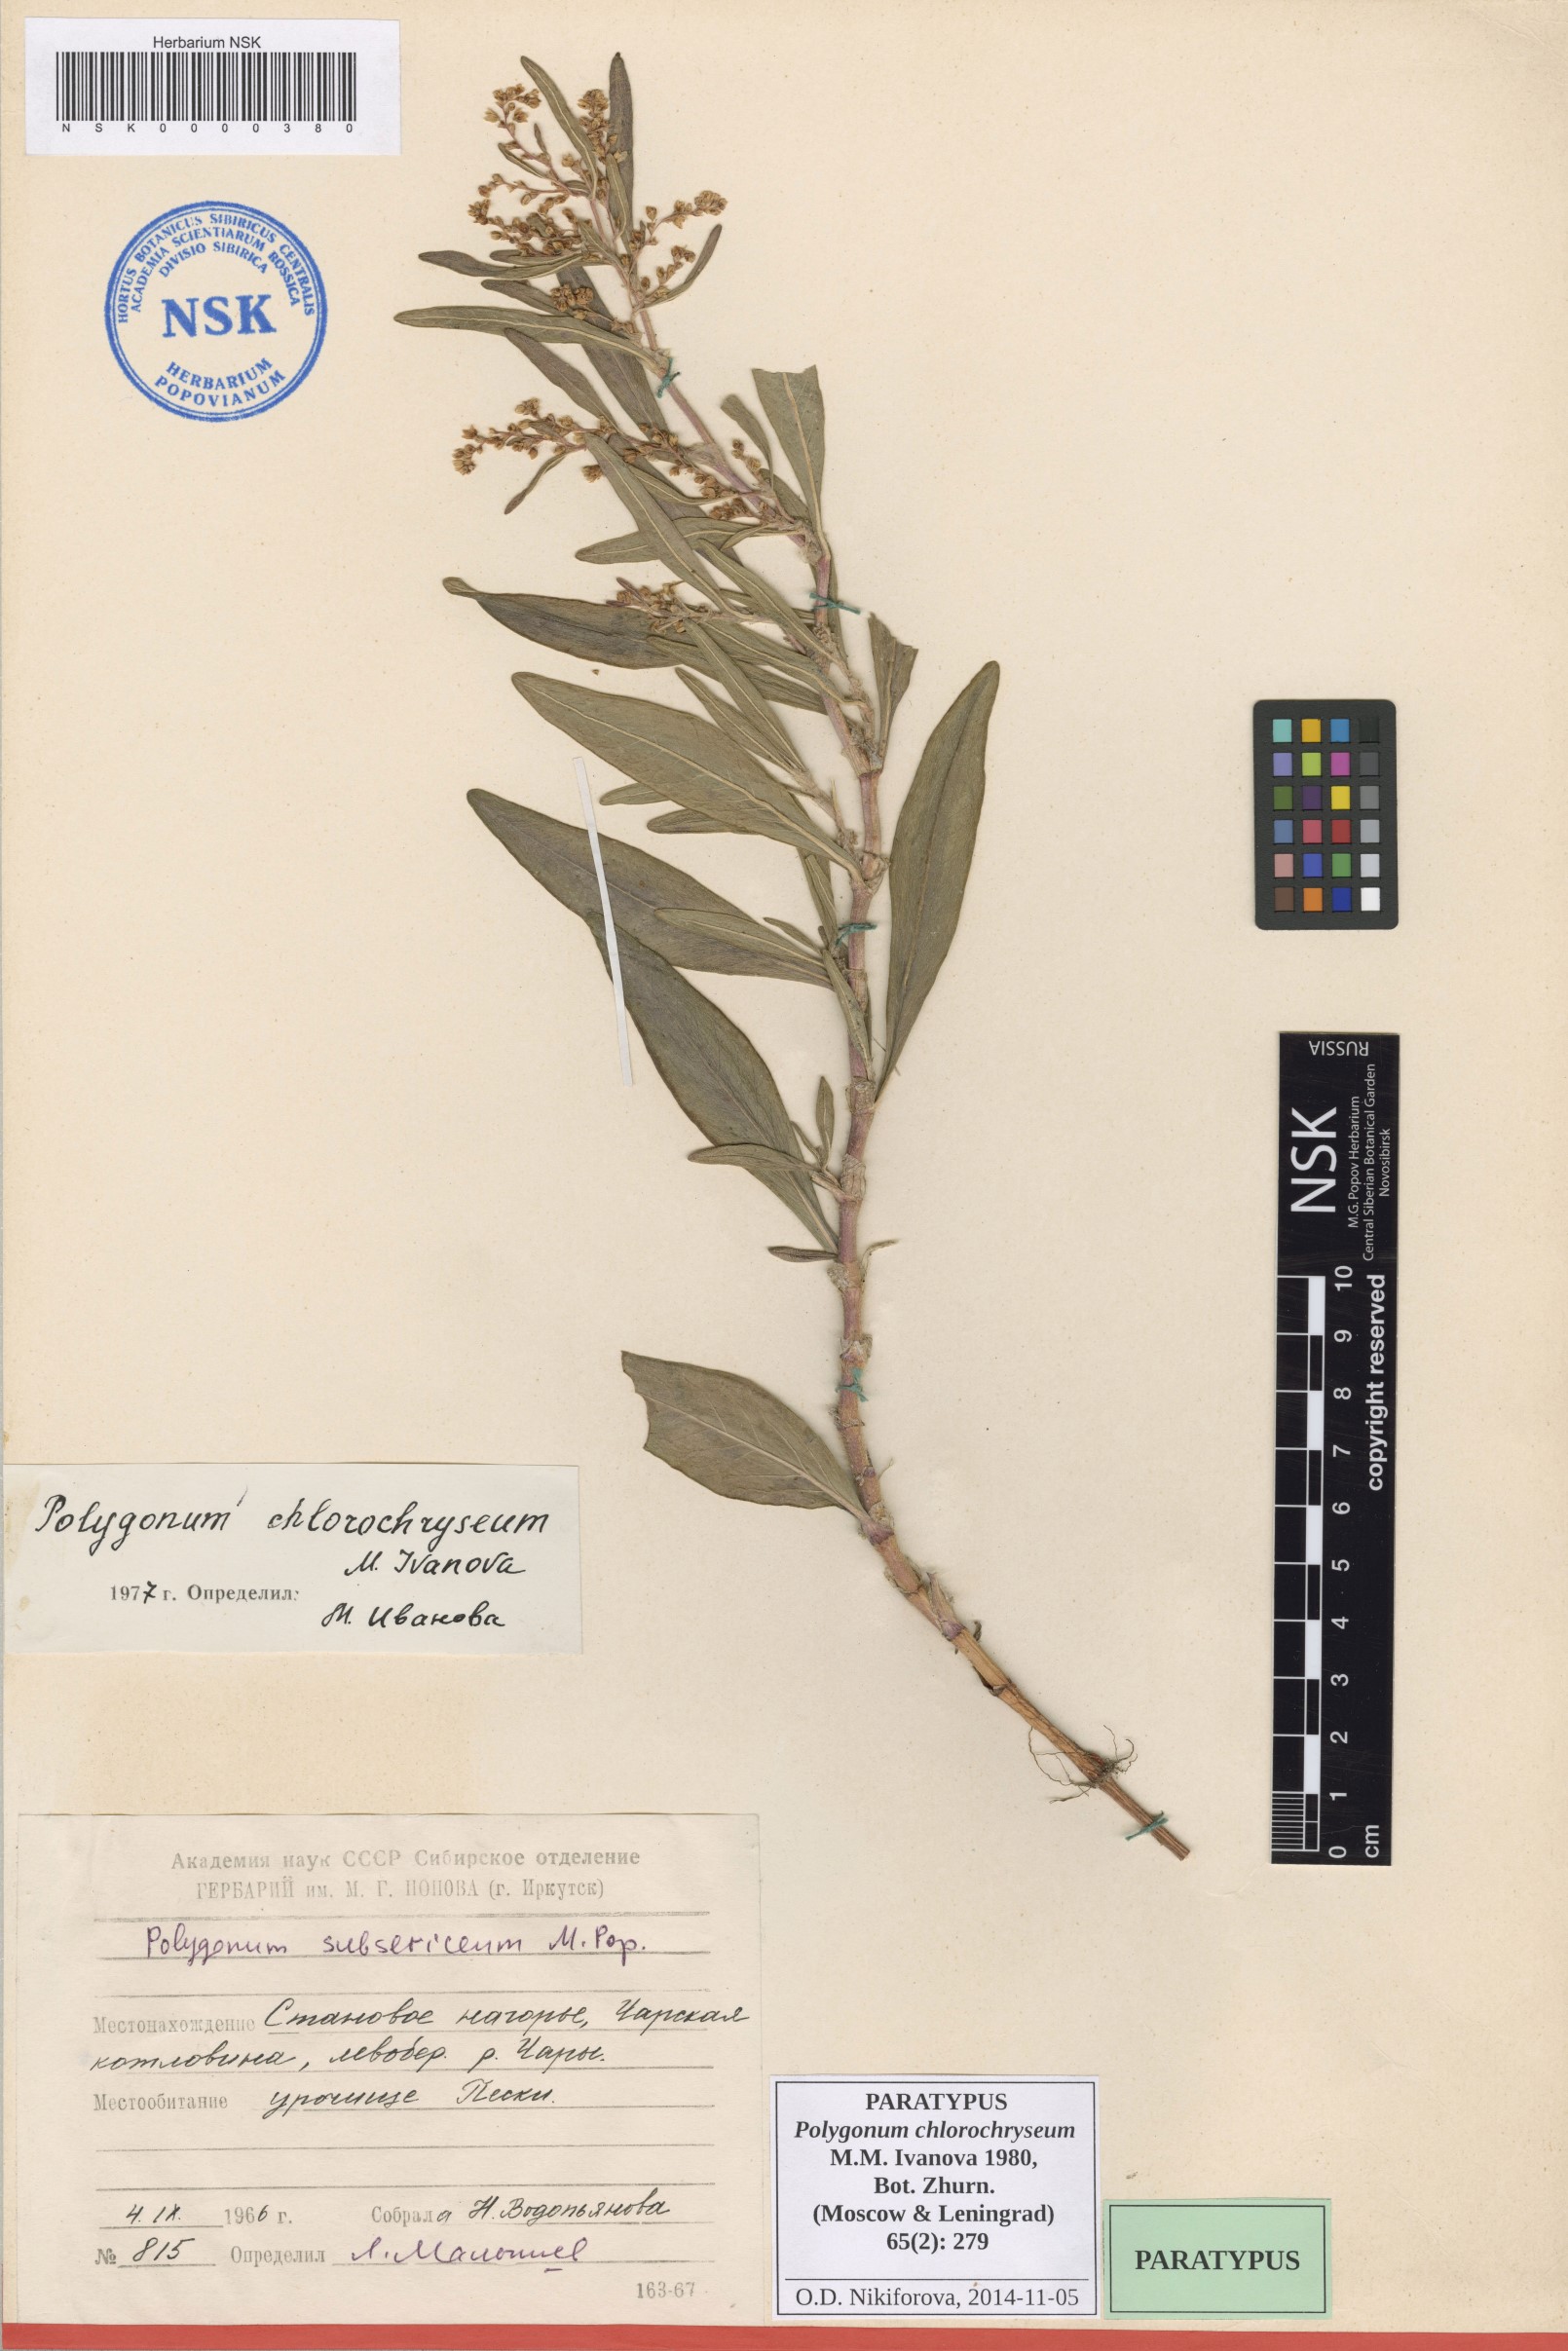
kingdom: Plantae
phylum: Tracheophyta
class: Magnoliopsida
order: Caryophyllales
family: Polygonaceae
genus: Koenigia
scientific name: Koenigia chlorochrysea
